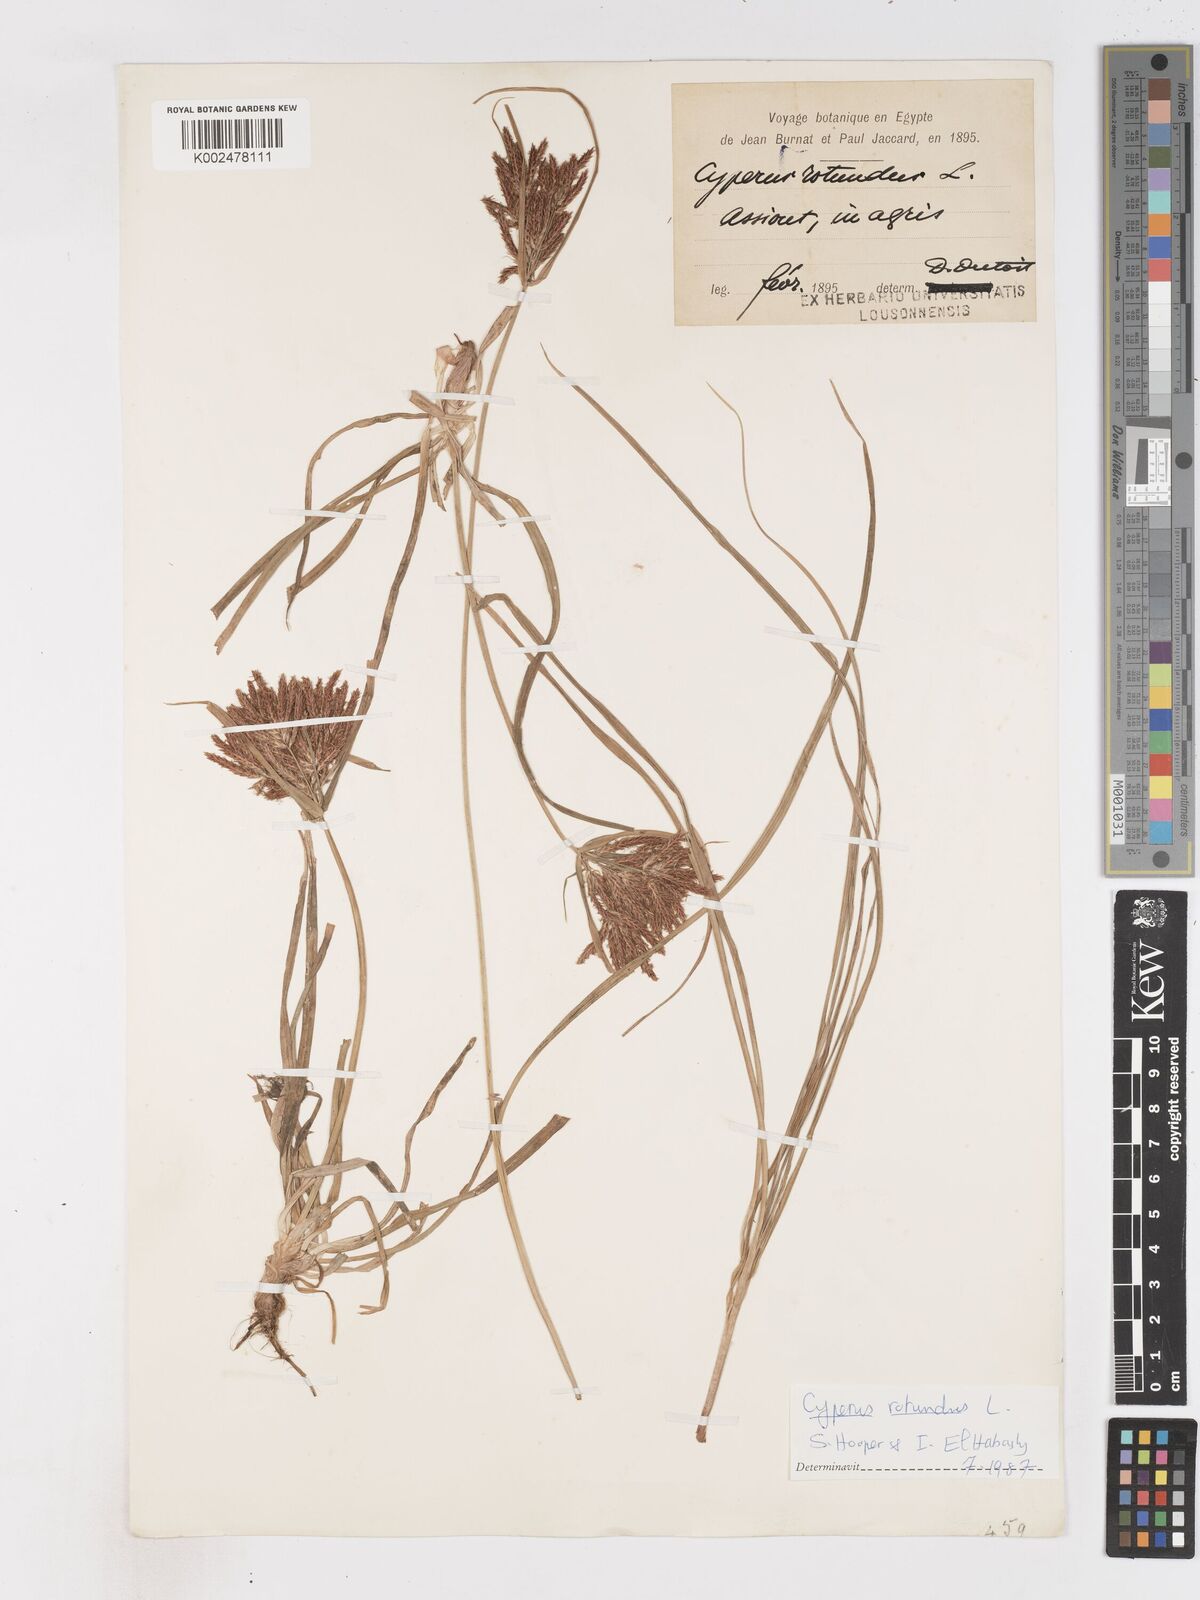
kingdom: Plantae
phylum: Tracheophyta
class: Liliopsida
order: Poales
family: Cyperaceae
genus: Cyperus
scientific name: Cyperus rotundus
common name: Nutgrass
